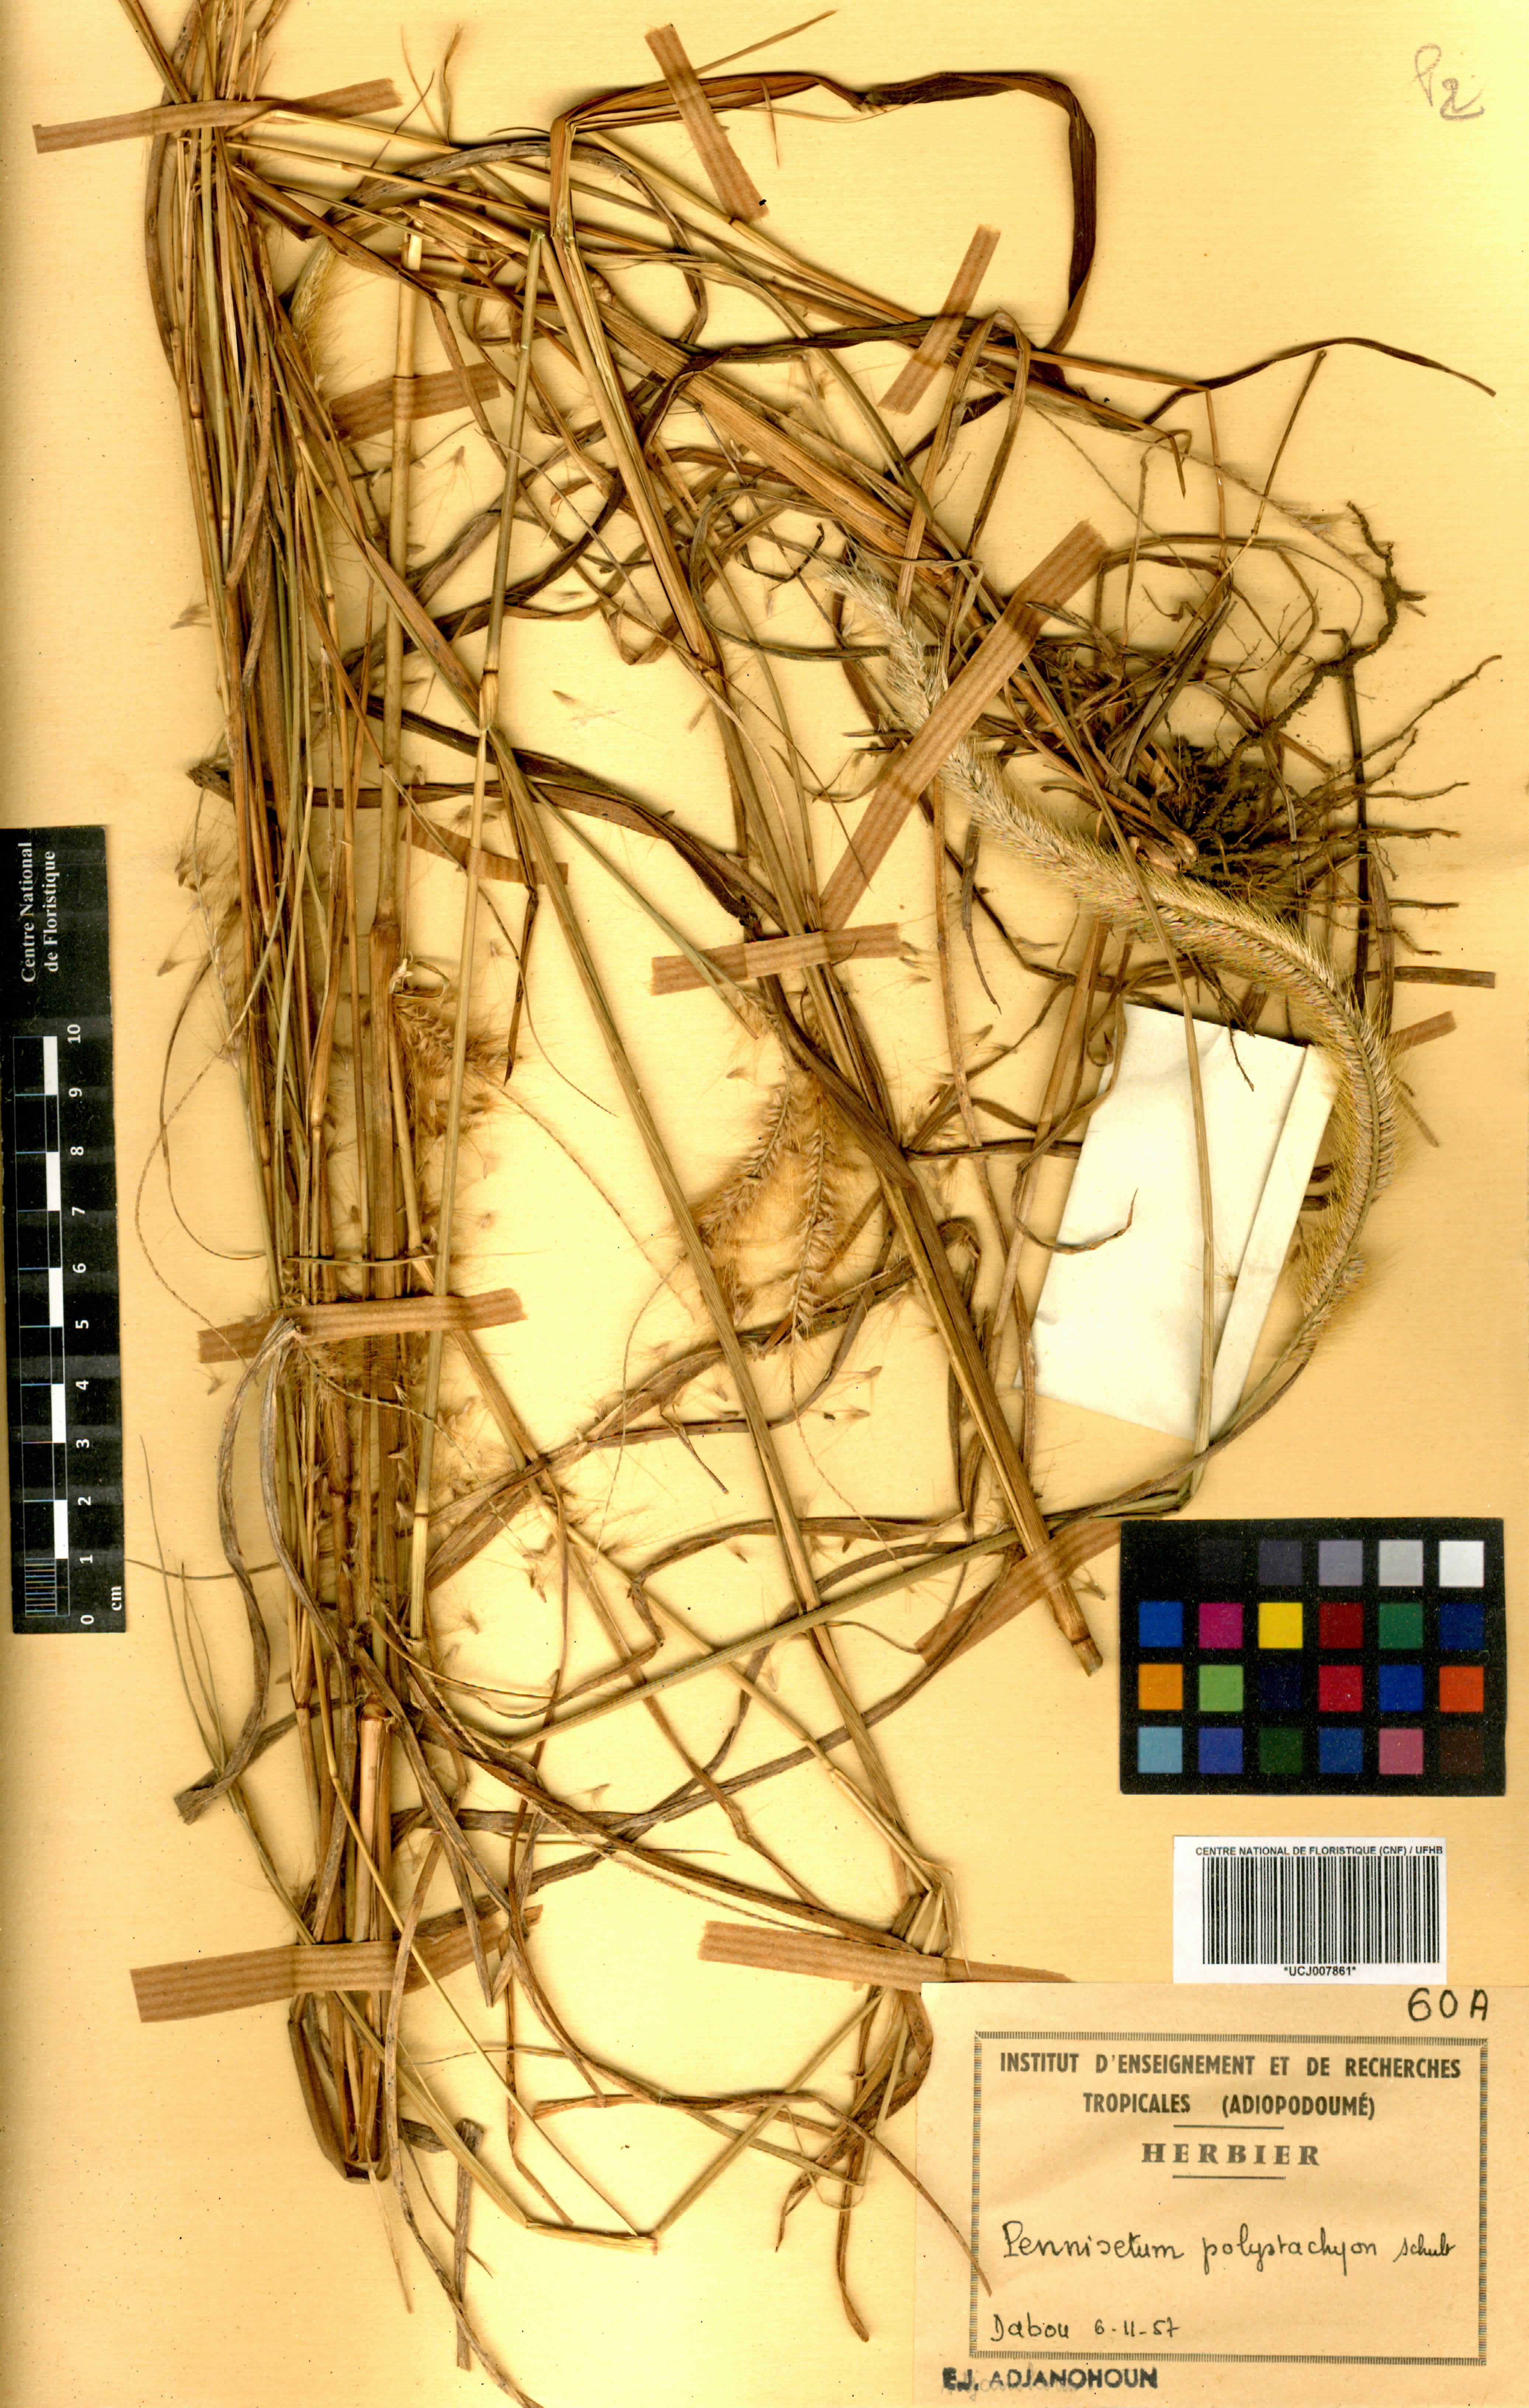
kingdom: Plantae
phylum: Tracheophyta
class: Liliopsida
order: Poales
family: Poaceae
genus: Setaria
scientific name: Setaria parviflora
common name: Knotroot bristle-grass
